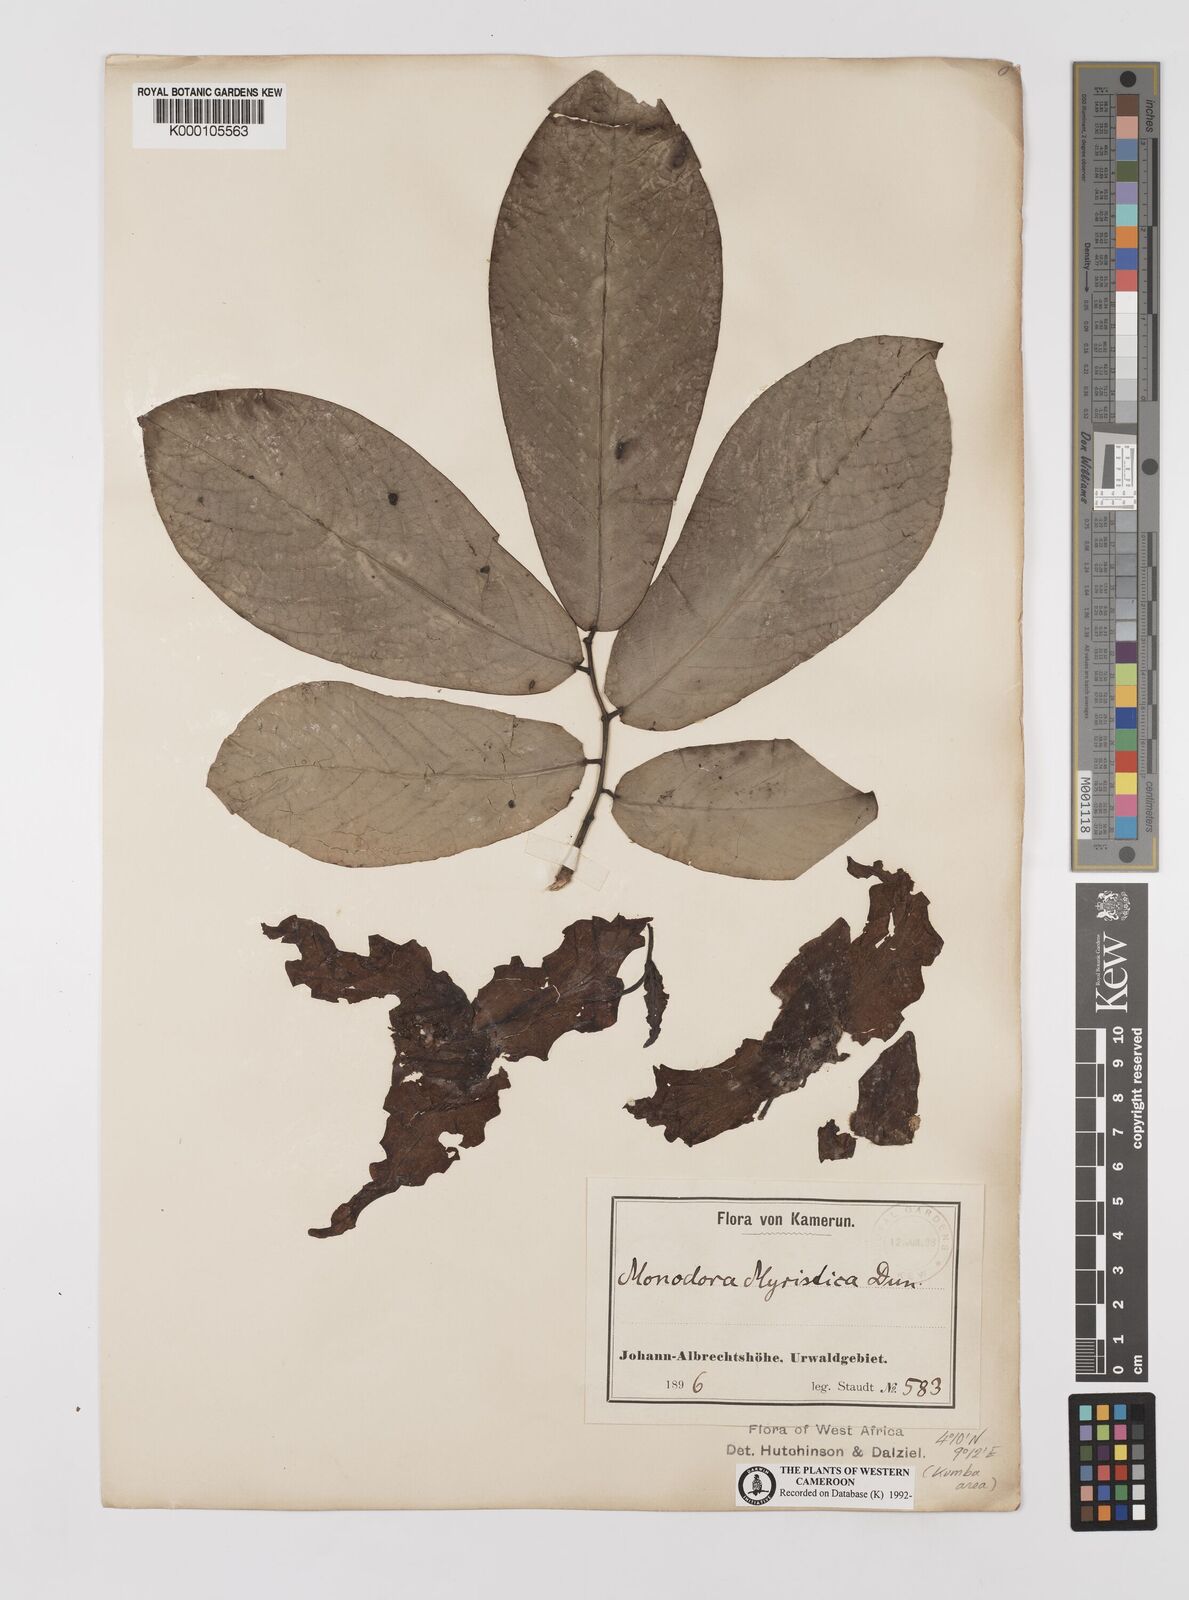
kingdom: Plantae
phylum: Tracheophyta
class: Magnoliopsida
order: Magnoliales
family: Annonaceae
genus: Monodora
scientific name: Monodora myristica
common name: African nutmeg
